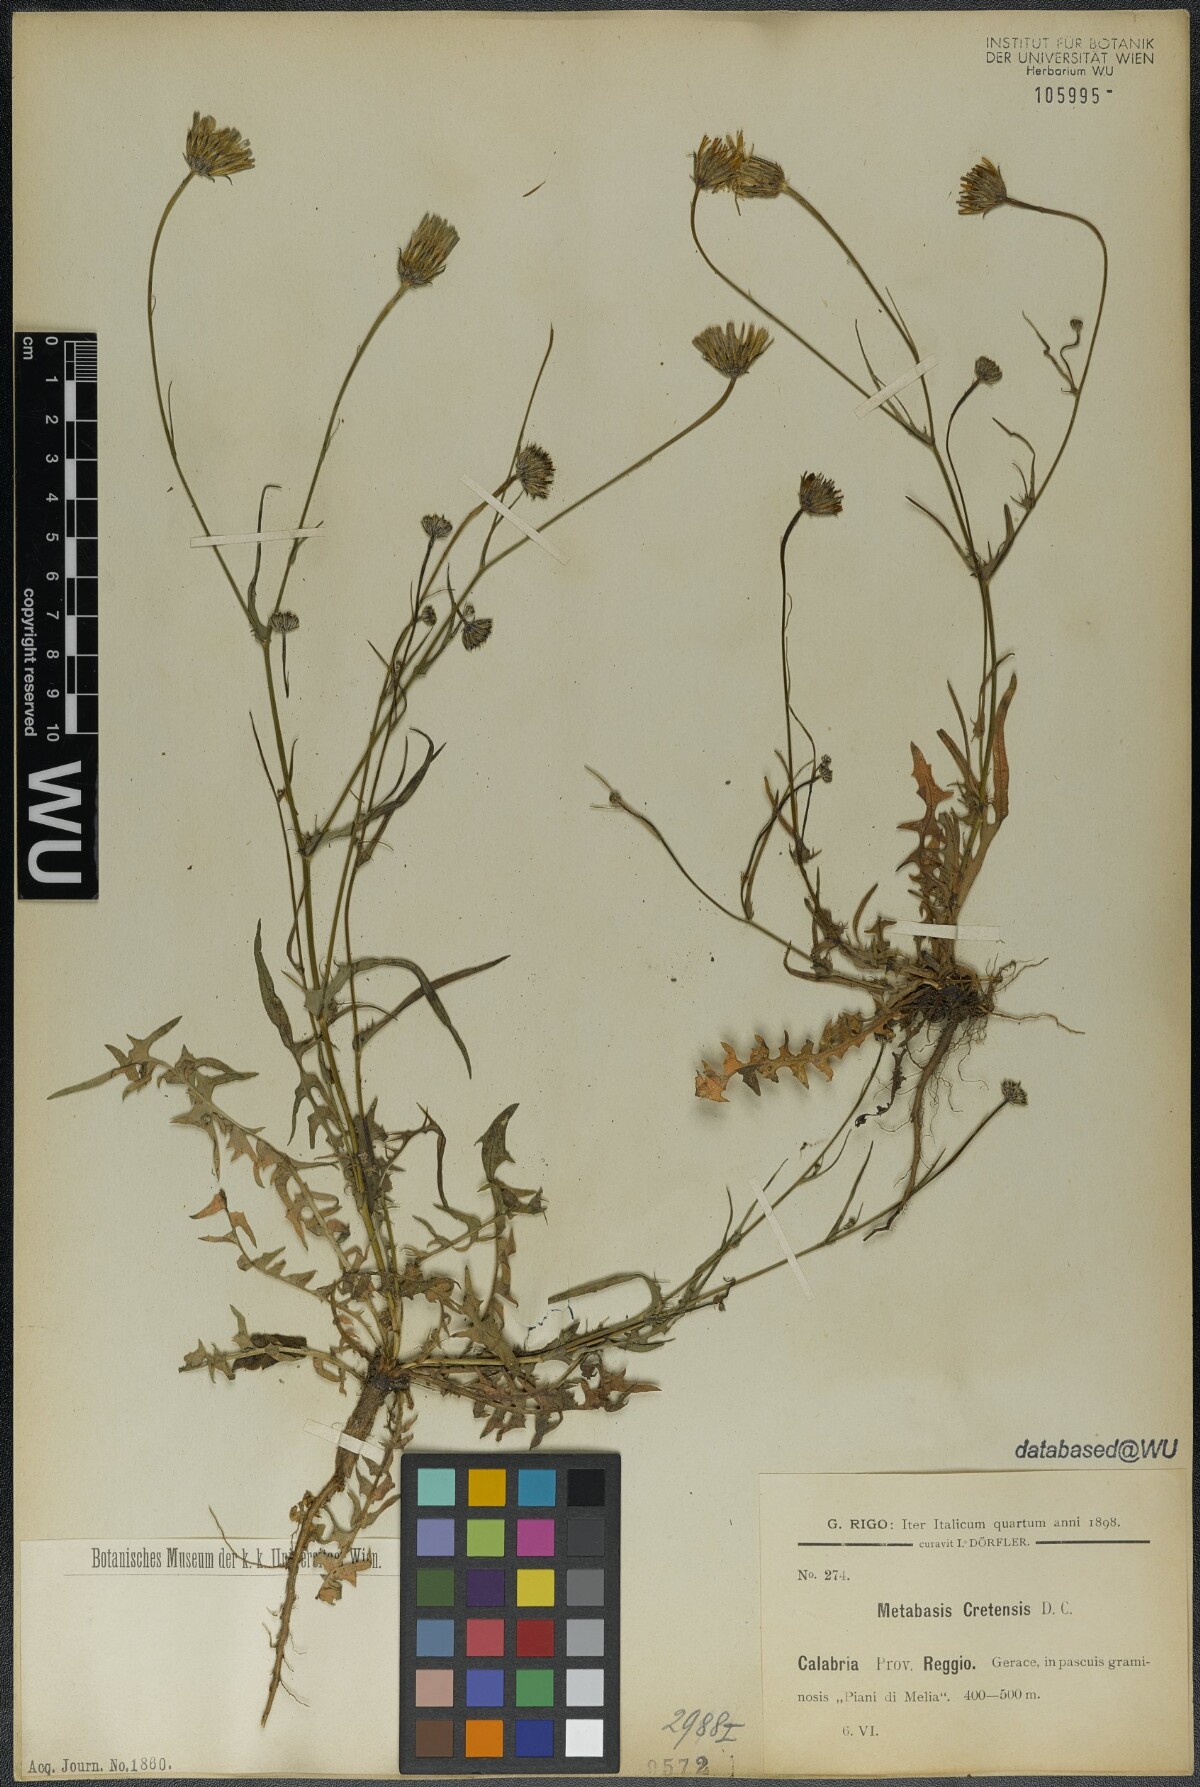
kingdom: Plantae
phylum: Tracheophyta
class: Magnoliopsida
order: Asterales
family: Asteraceae
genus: Hypochaeris
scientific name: Hypochaeris cretensis
